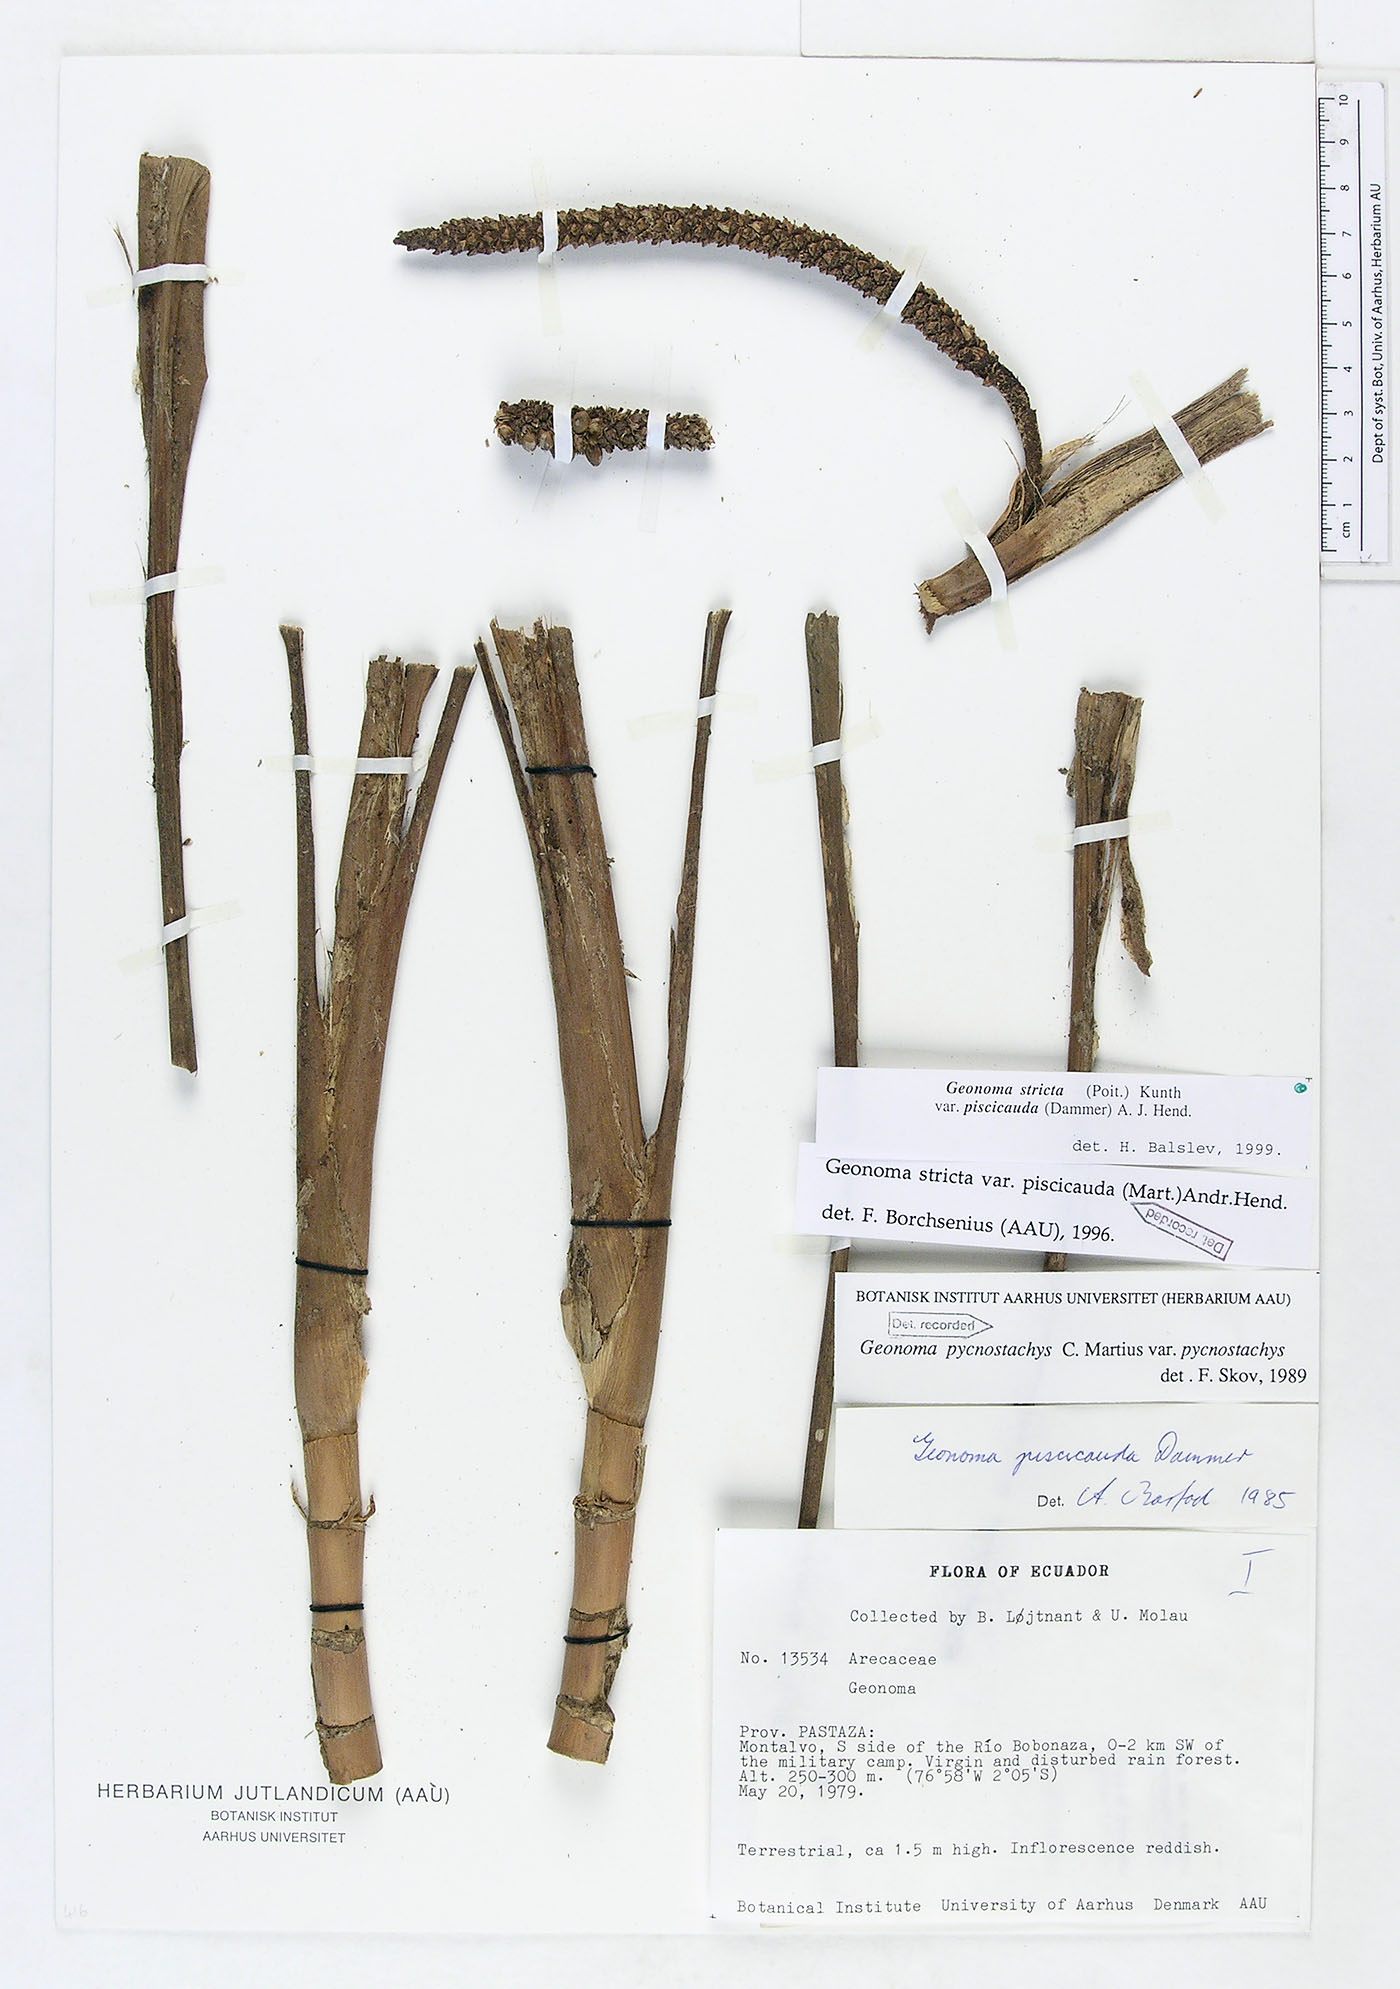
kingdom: Plantae
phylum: Tracheophyta
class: Liliopsida
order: Arecales
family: Arecaceae
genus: Geonoma
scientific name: Geonoma stricta
